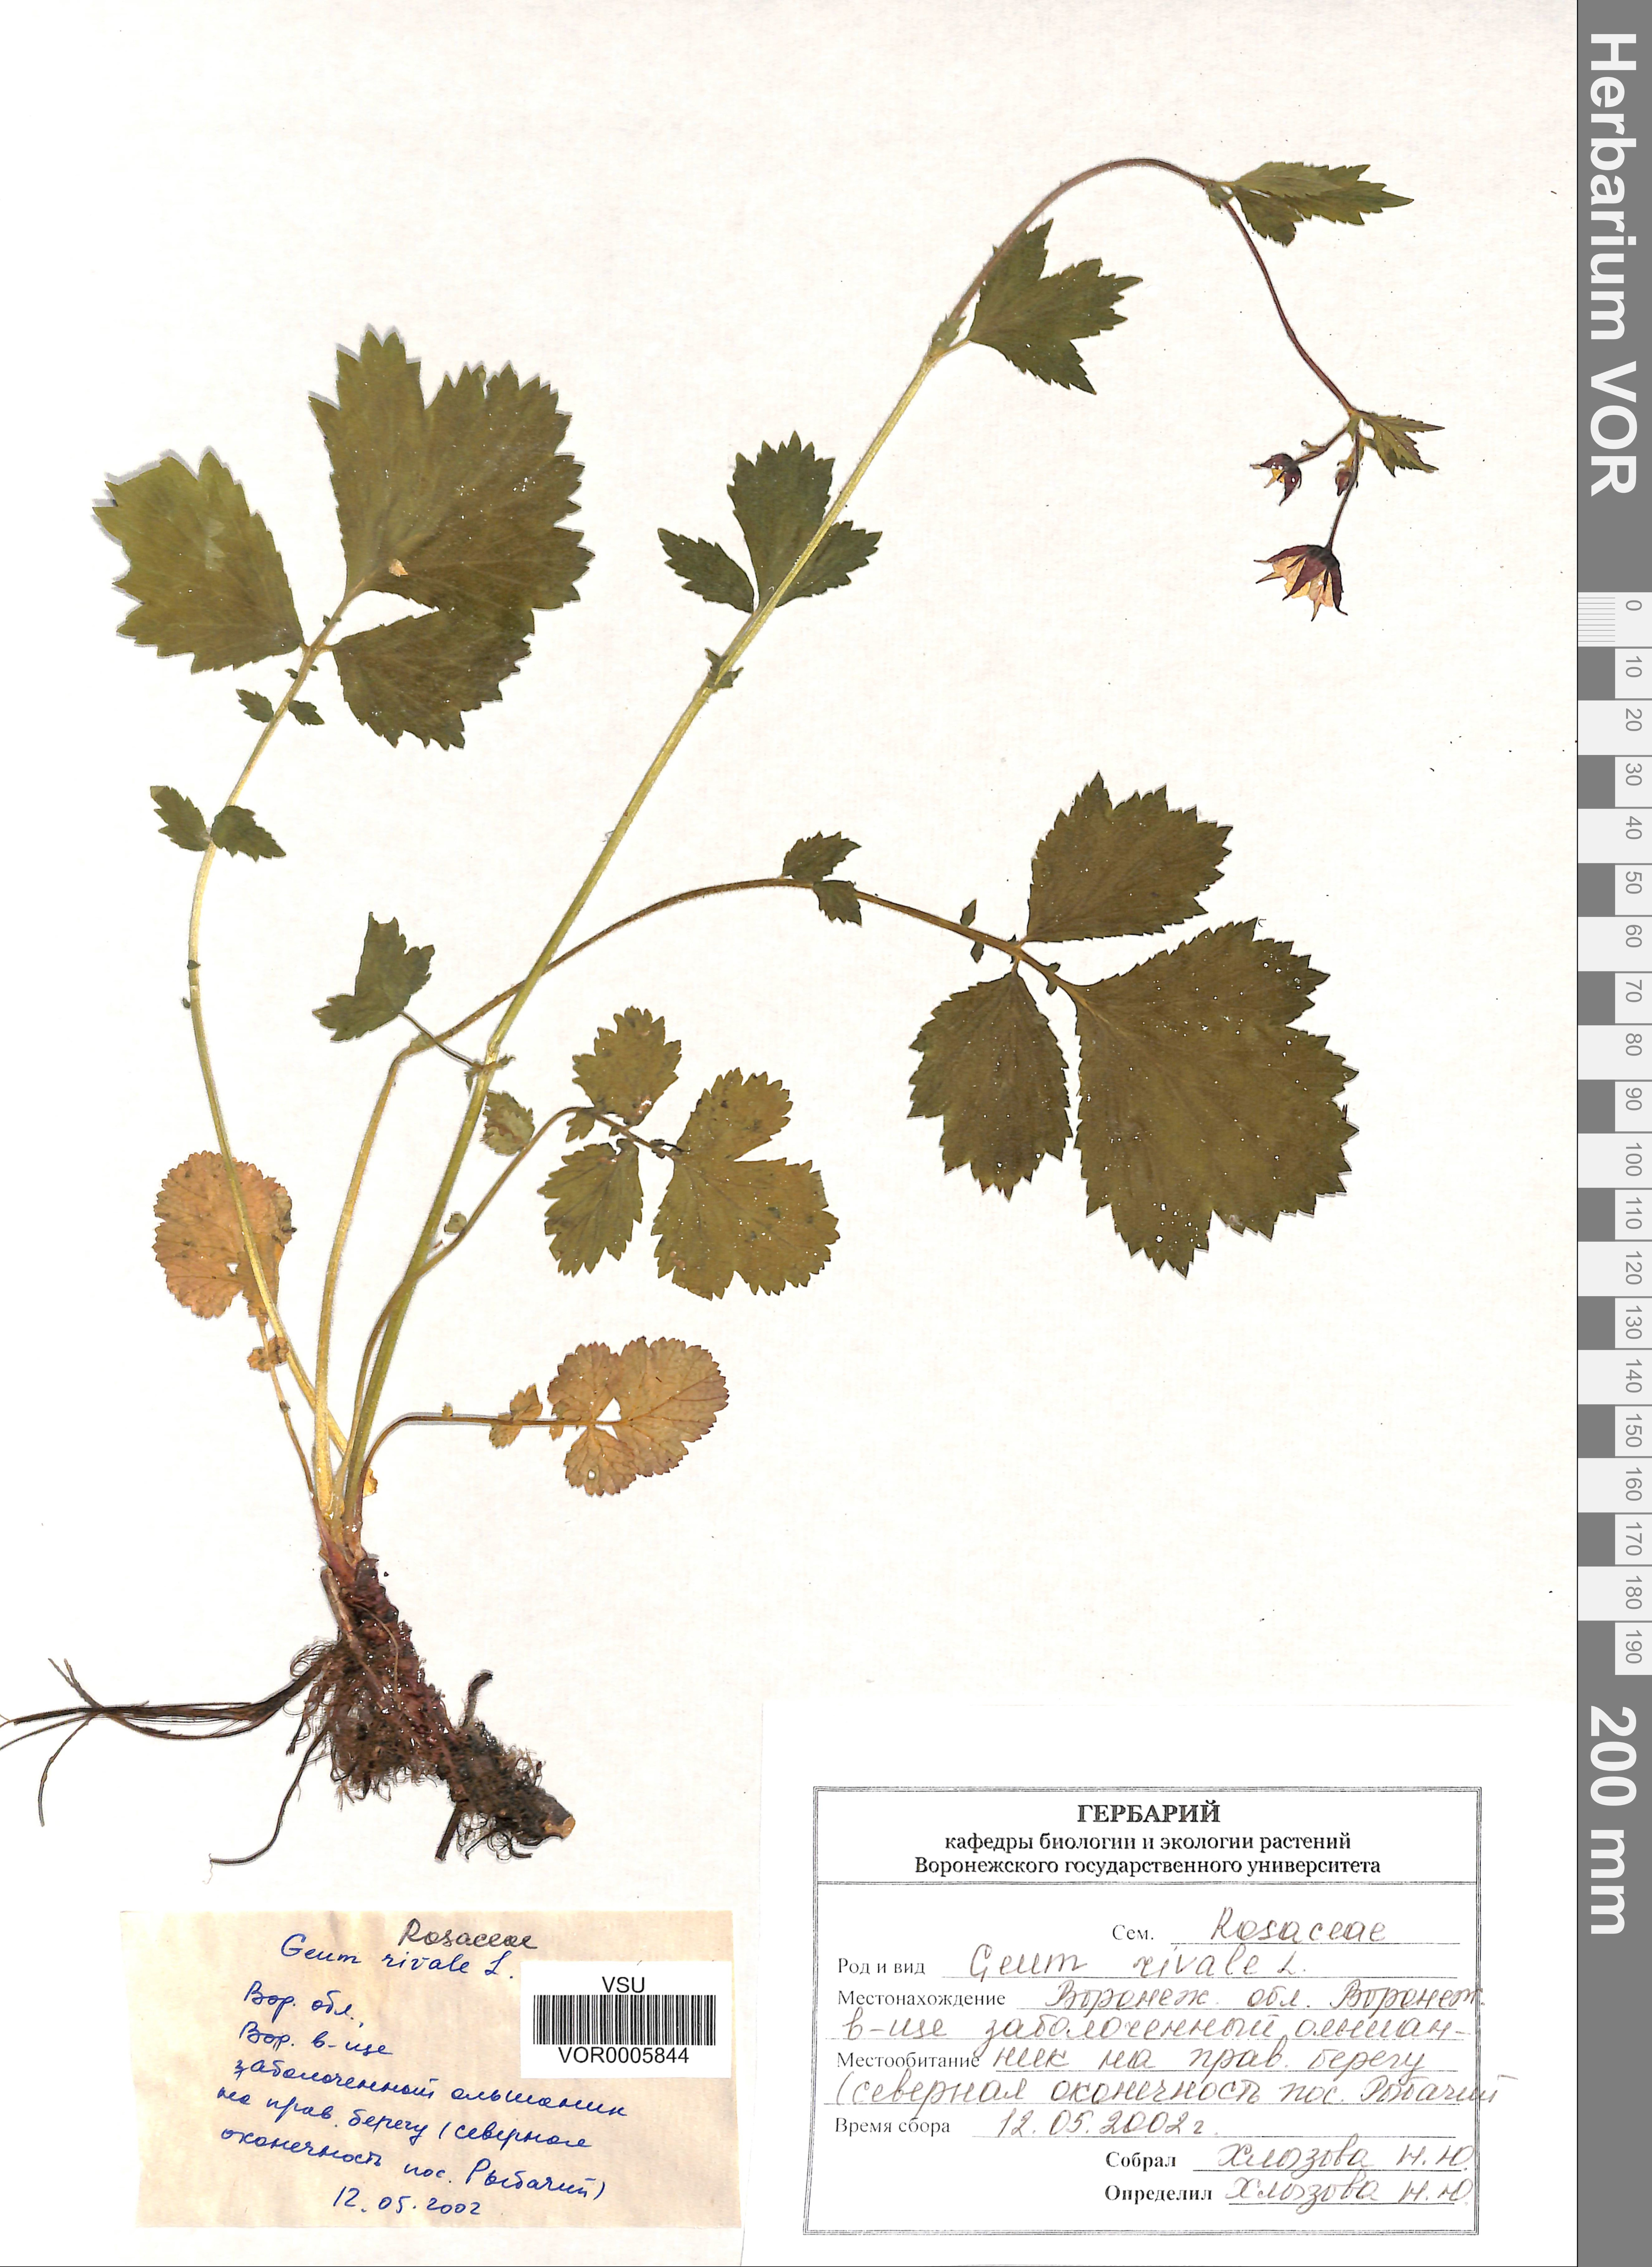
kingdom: Plantae
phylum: Tracheophyta
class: Magnoliopsida
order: Rosales
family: Rosaceae
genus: Geum
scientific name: Geum rivale
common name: Water avens
